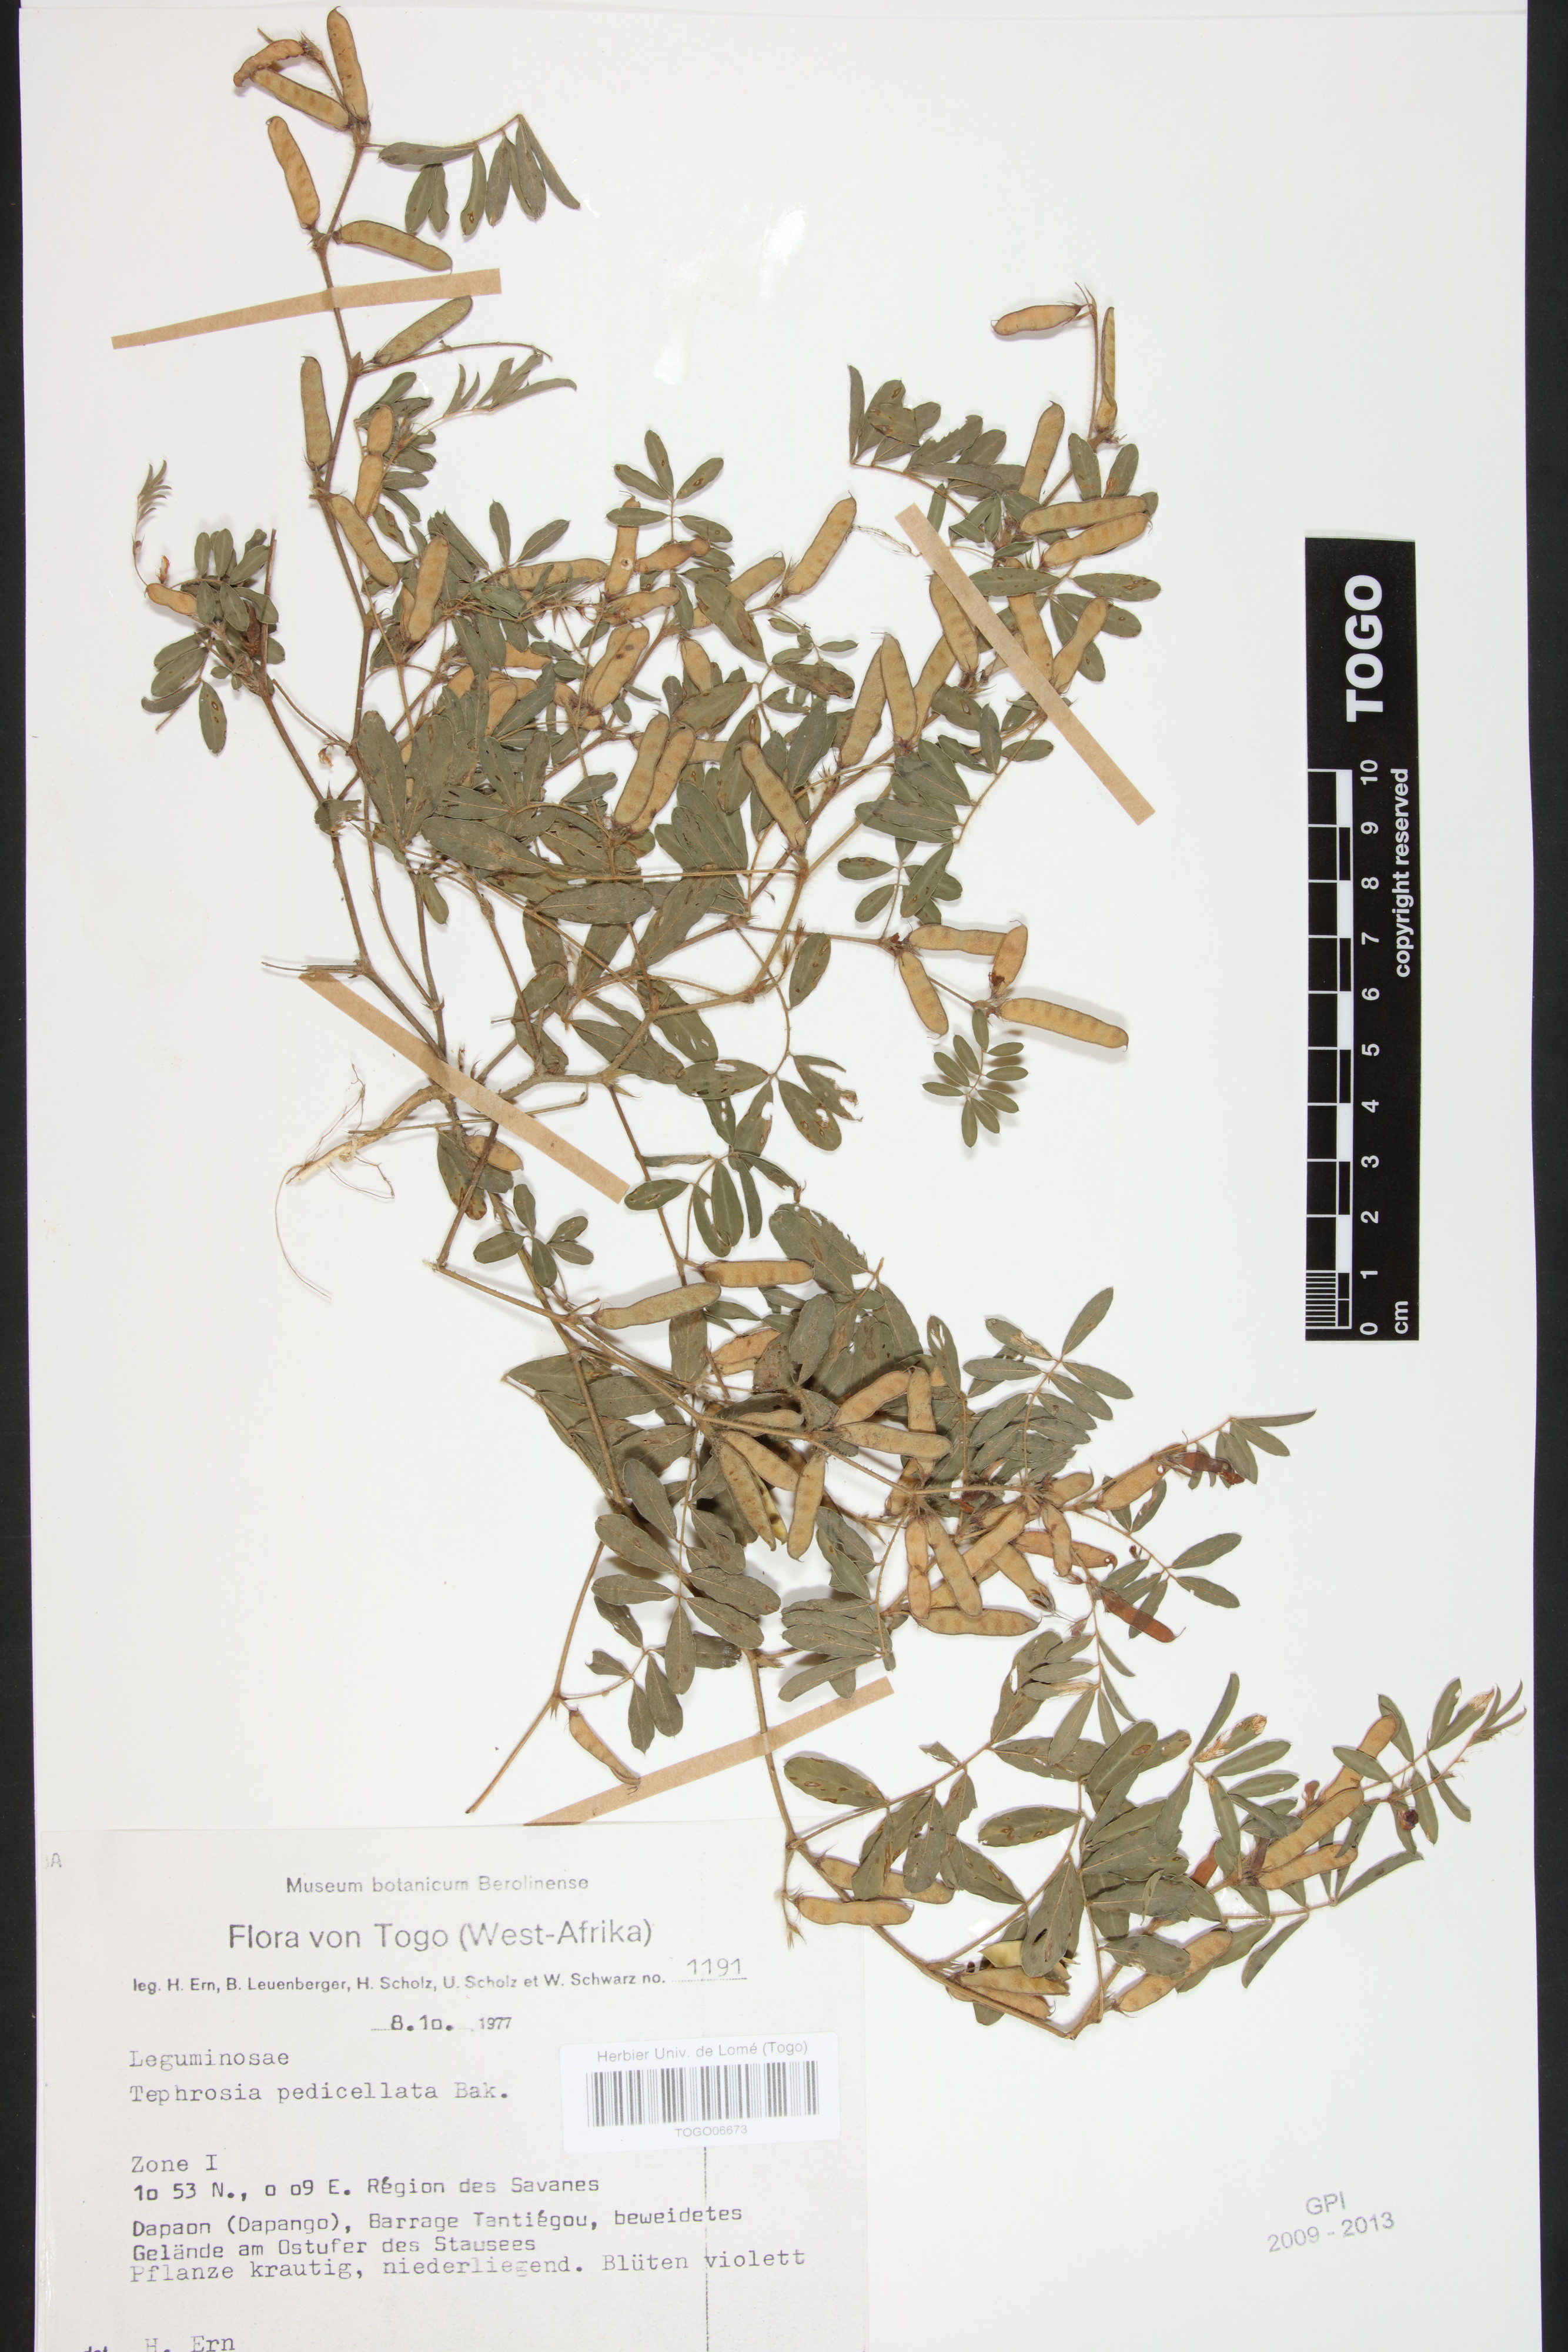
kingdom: Plantae
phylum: Tracheophyta
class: Magnoliopsida
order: Fabales
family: Fabaceae
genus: Tephrosia
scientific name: Tephrosia pedicellata
